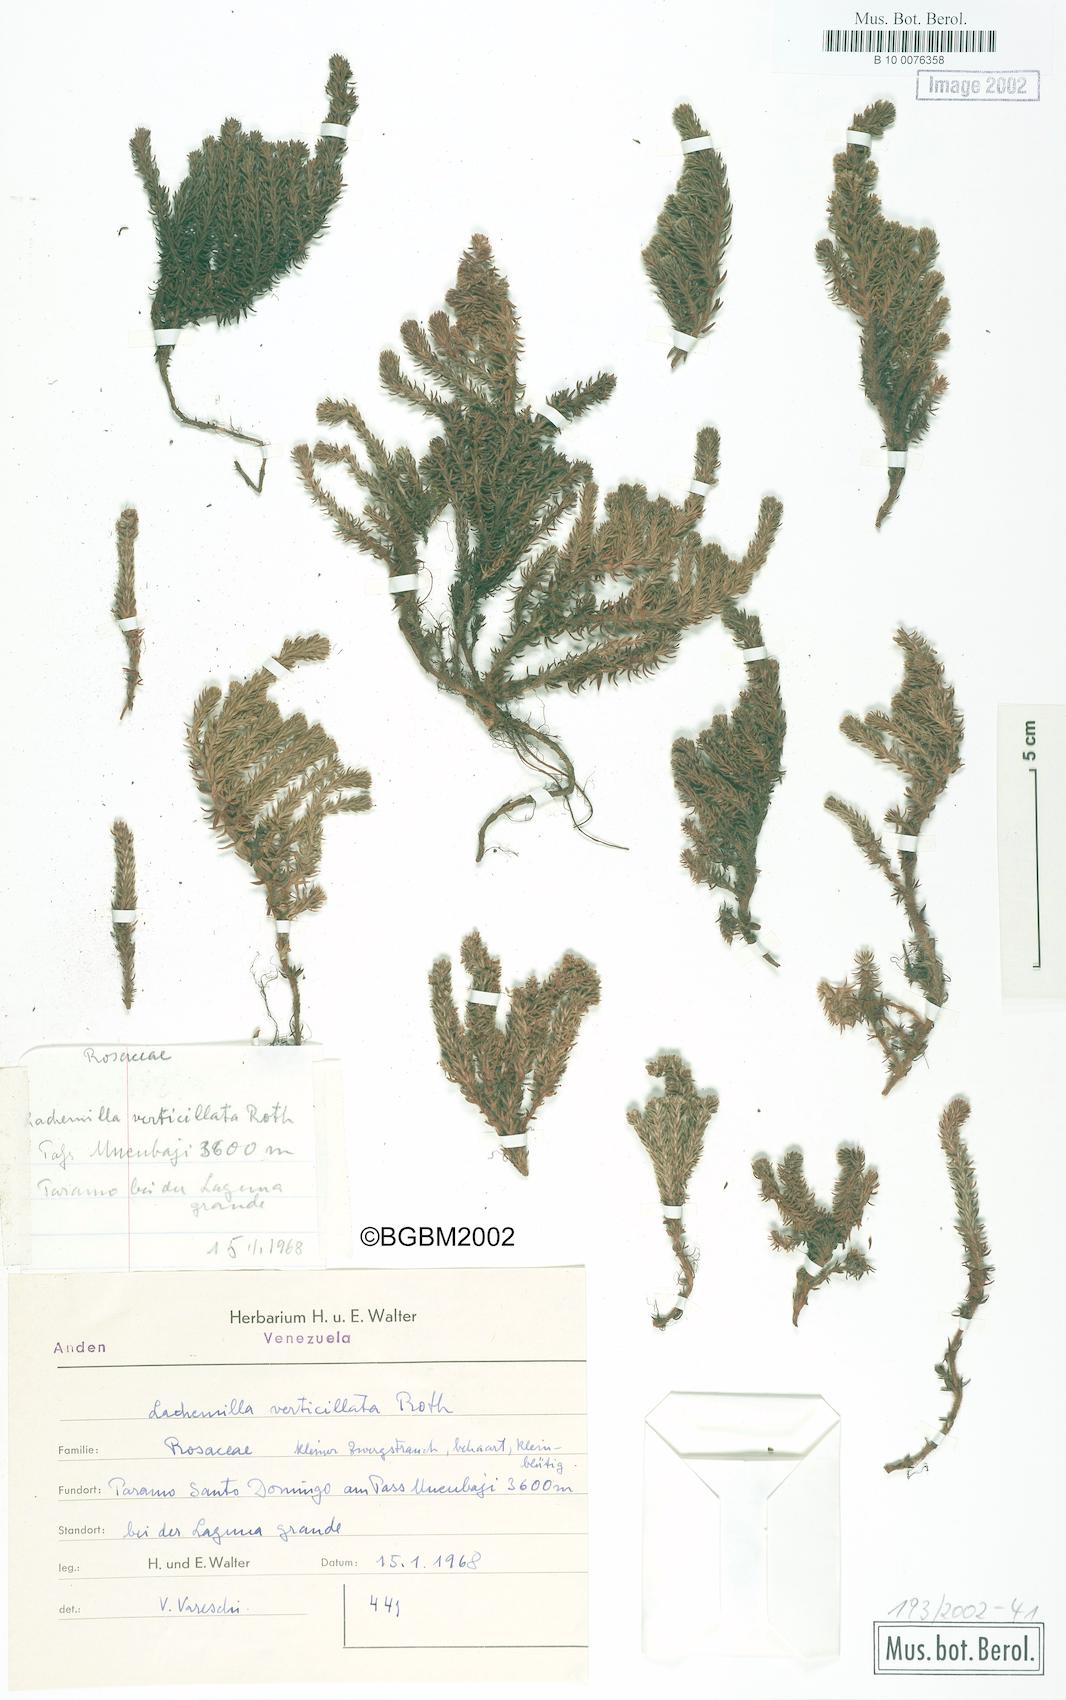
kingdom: Plantae
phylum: Tracheophyta
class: Magnoliopsida
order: Rosales
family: Rosaceae
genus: Lachemilla
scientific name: Lachemilla verticillata
